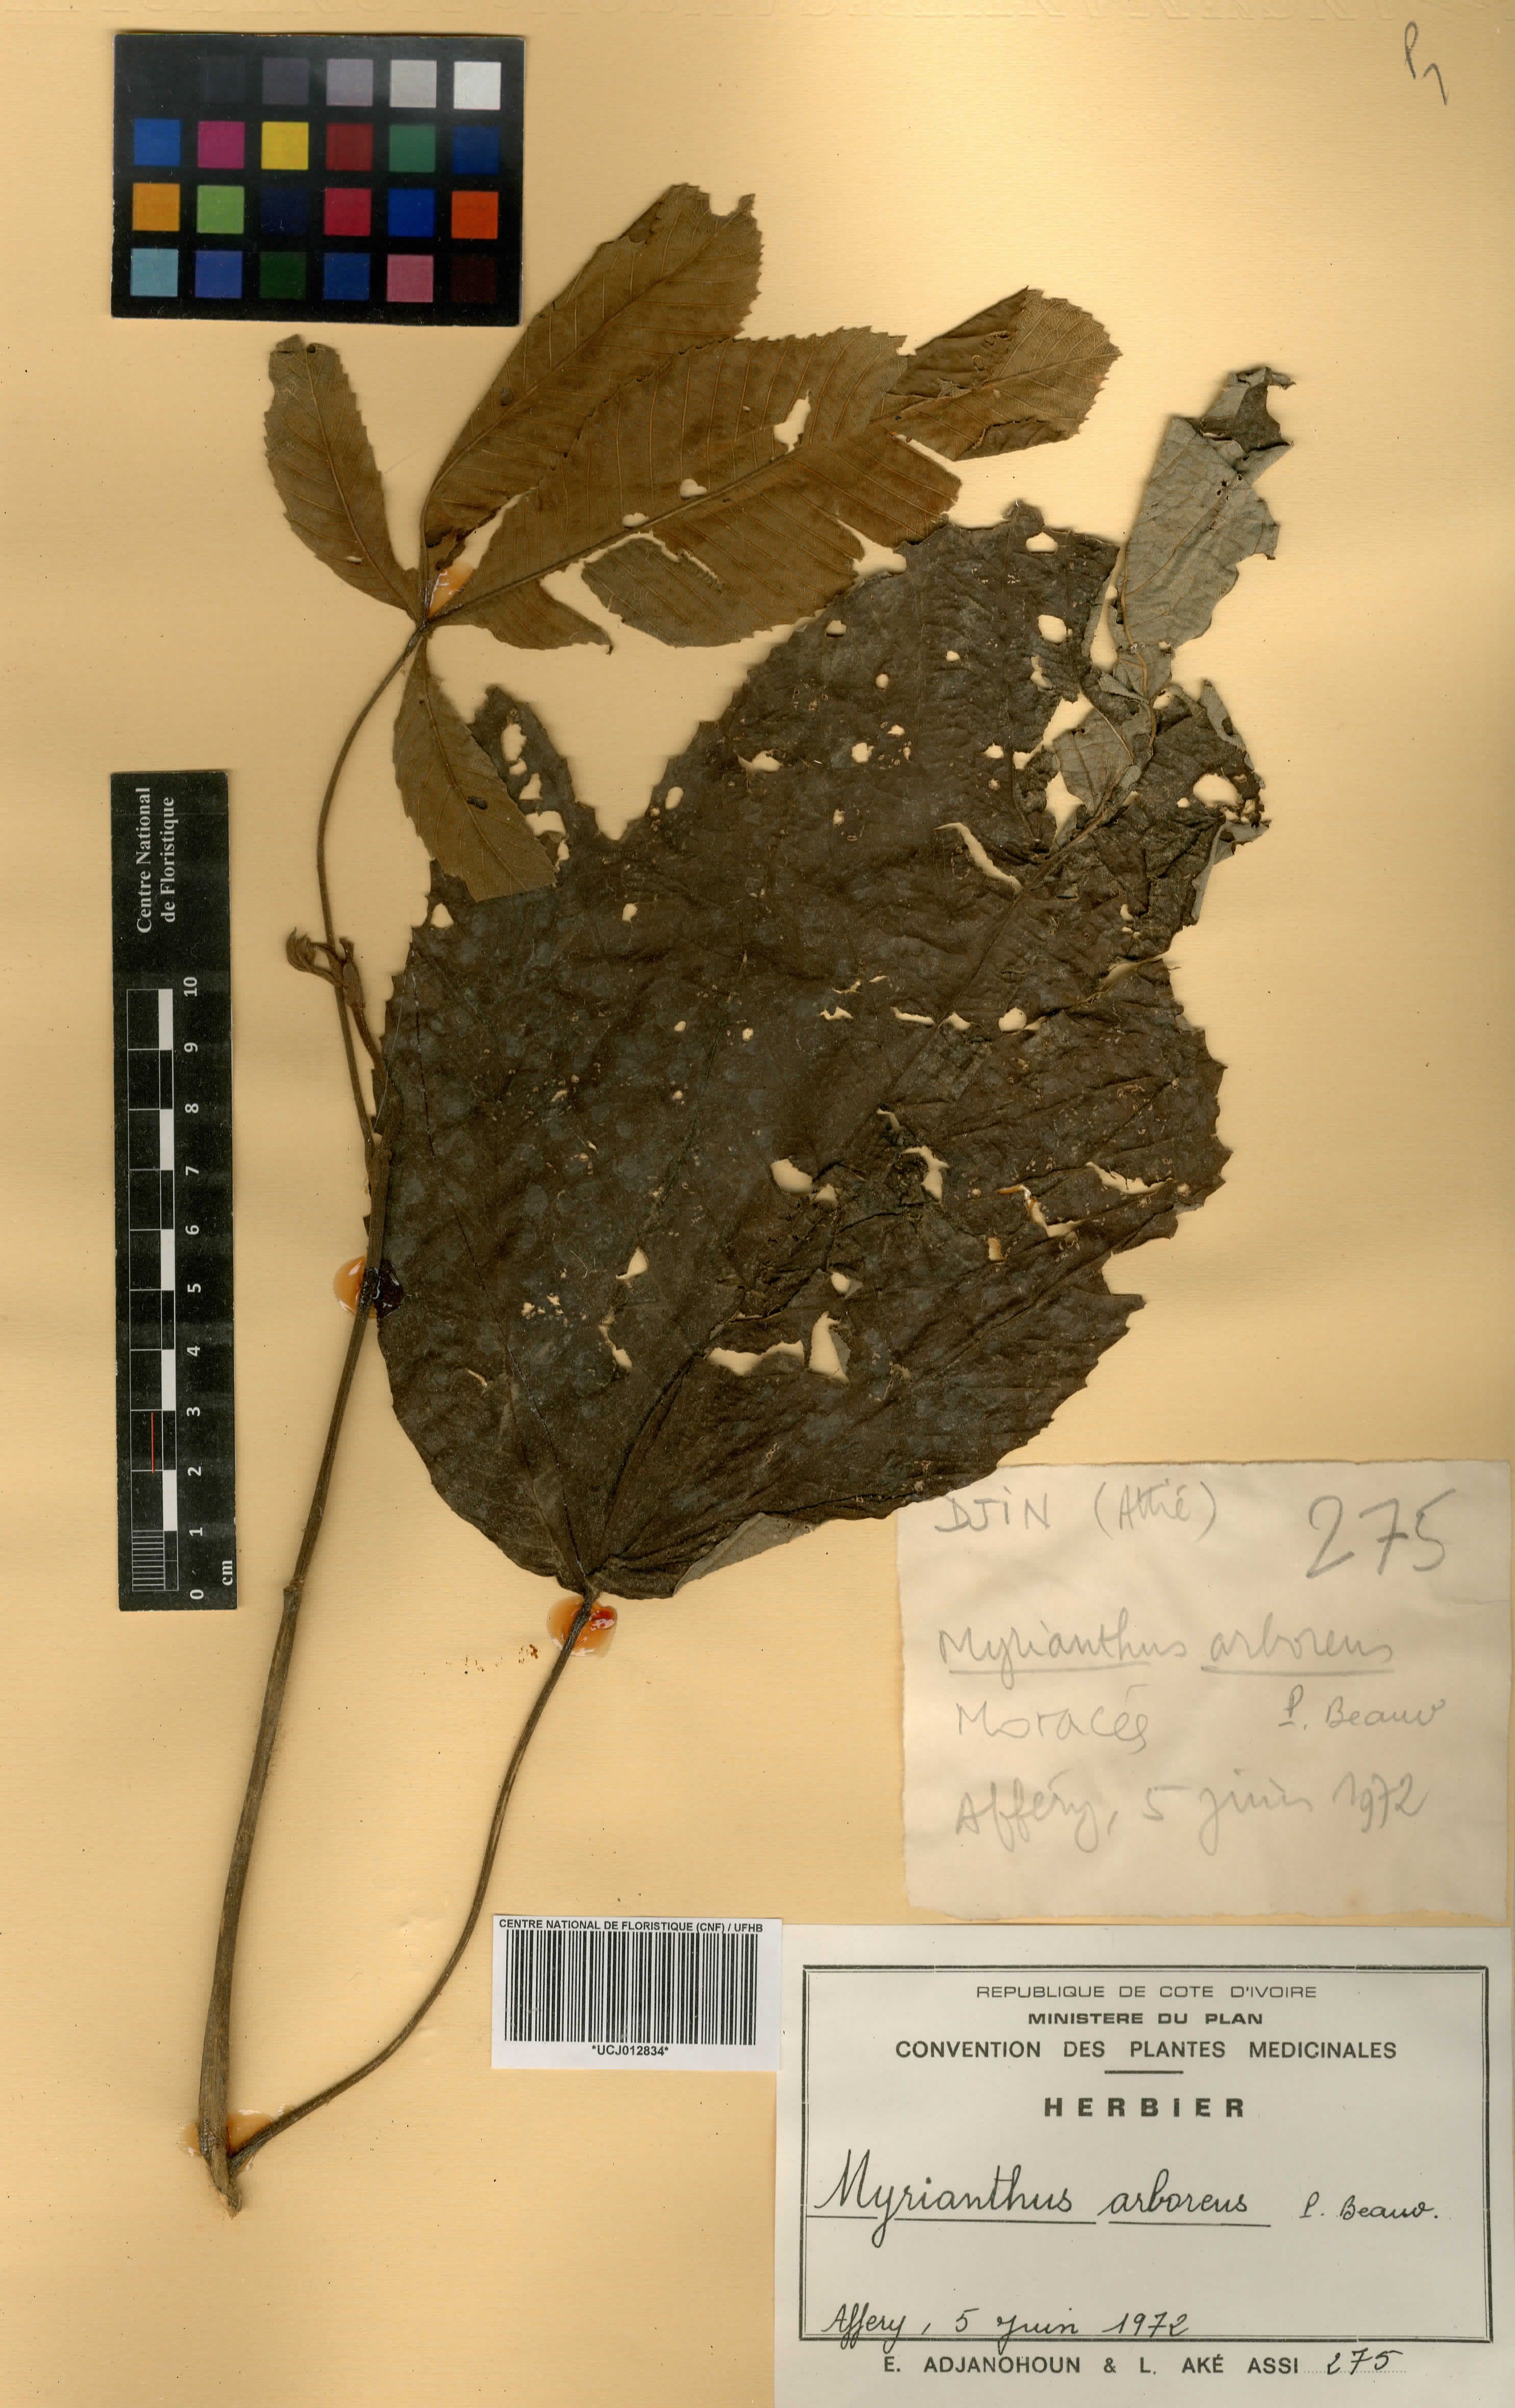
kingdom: Plantae
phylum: Tracheophyta
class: Magnoliopsida
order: Rosales
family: Urticaceae
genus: Myrianthus
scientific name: Myrianthus arboreus
